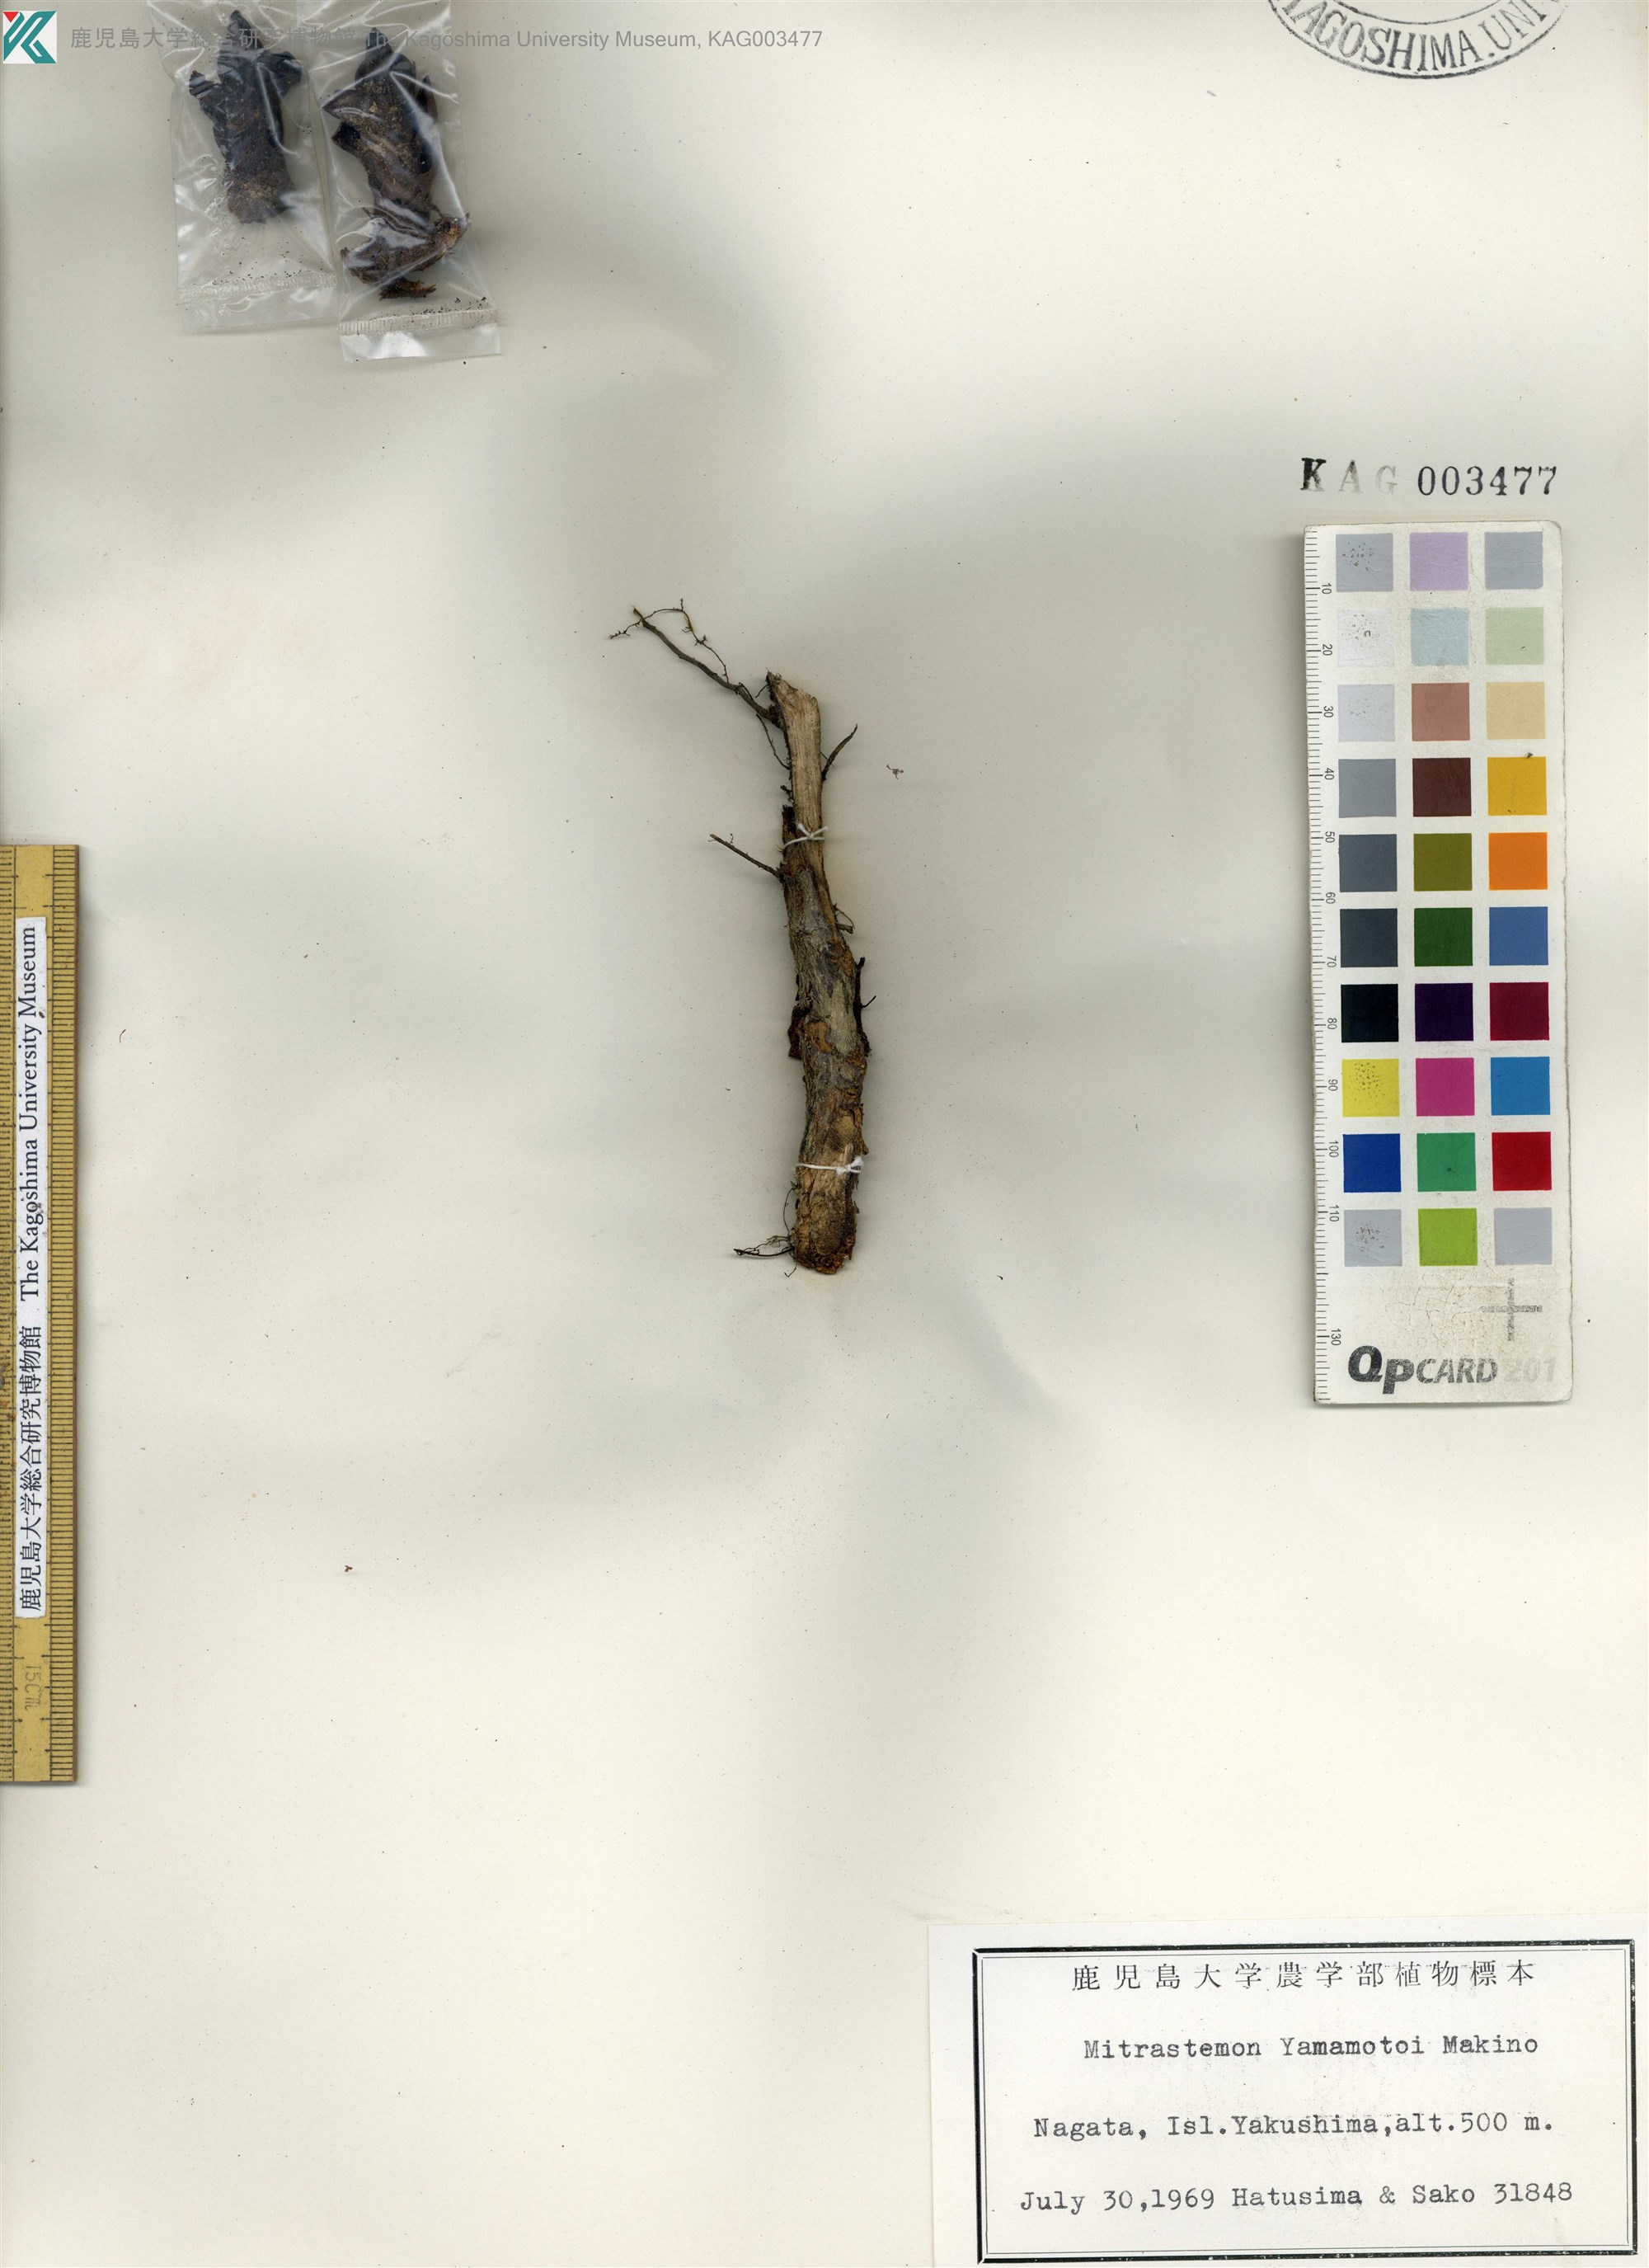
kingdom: Plantae
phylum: Tracheophyta
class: Magnoliopsida
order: Ericales
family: Mitrastemonaceae
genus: Mitrastemon
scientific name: Mitrastemon yamamotoi
